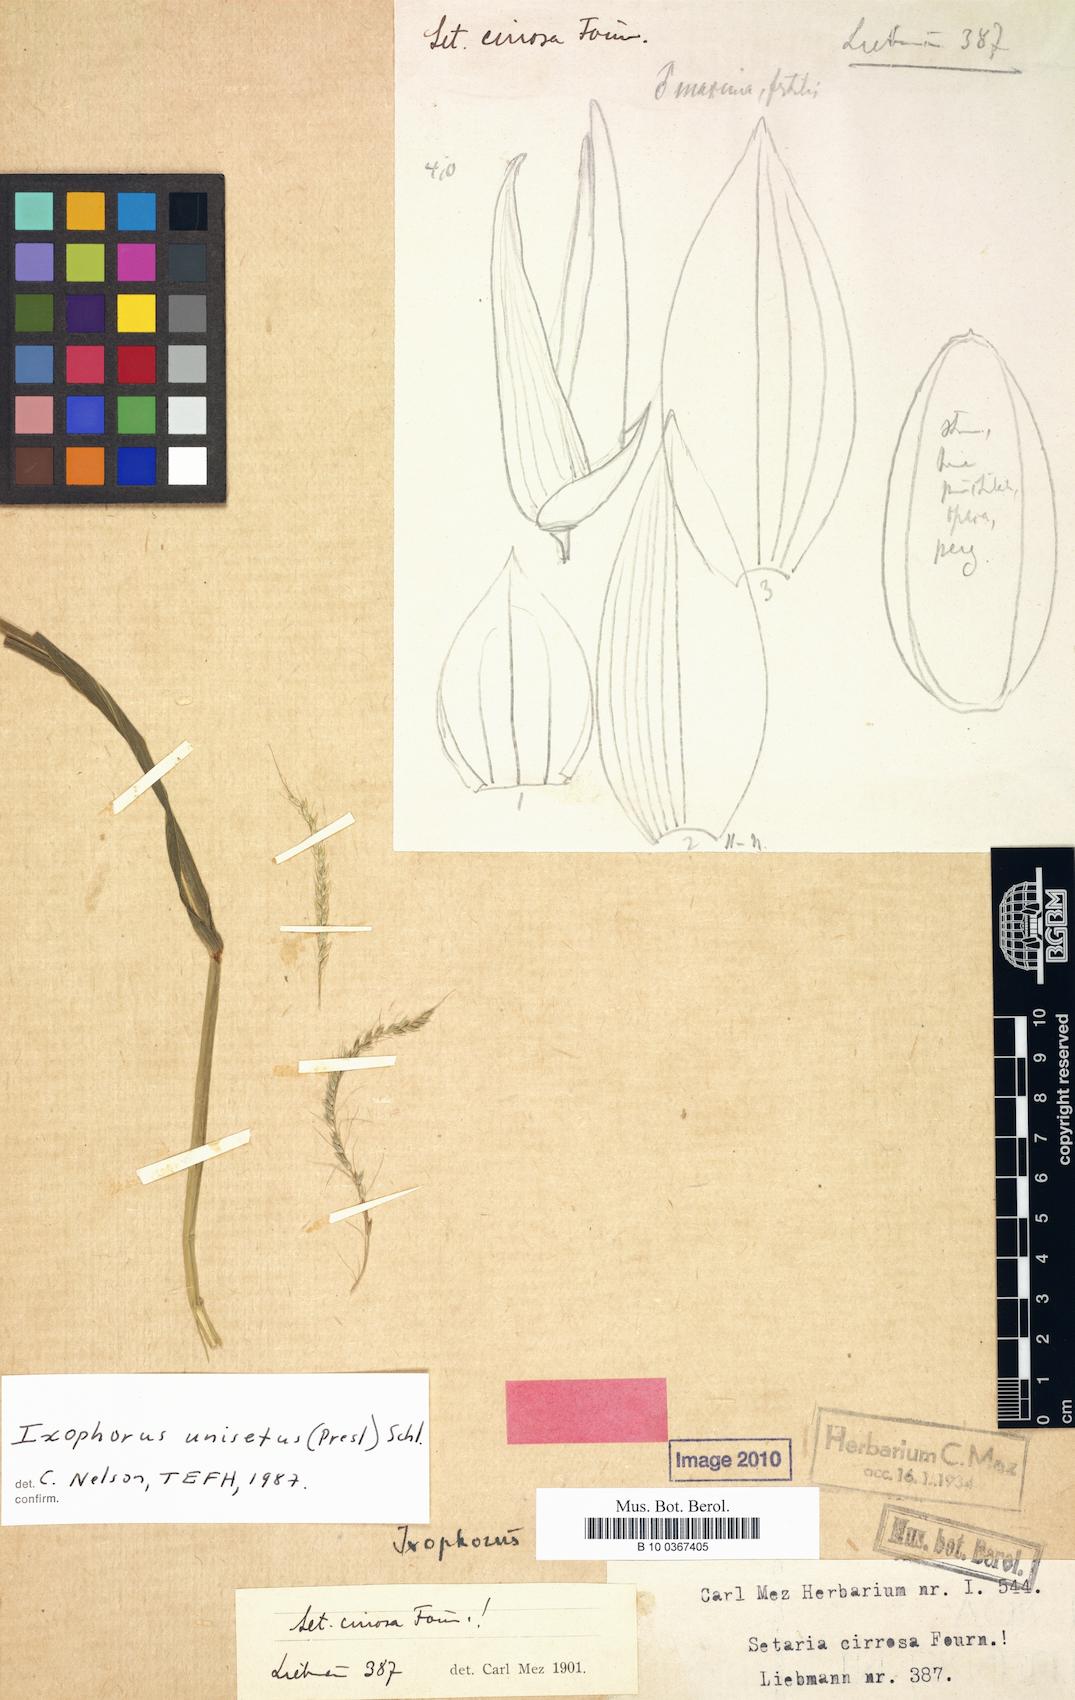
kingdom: Plantae
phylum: Tracheophyta
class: Liliopsida
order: Poales
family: Poaceae
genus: Ixophorus
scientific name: Ixophorus unisetus
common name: Crane grass
